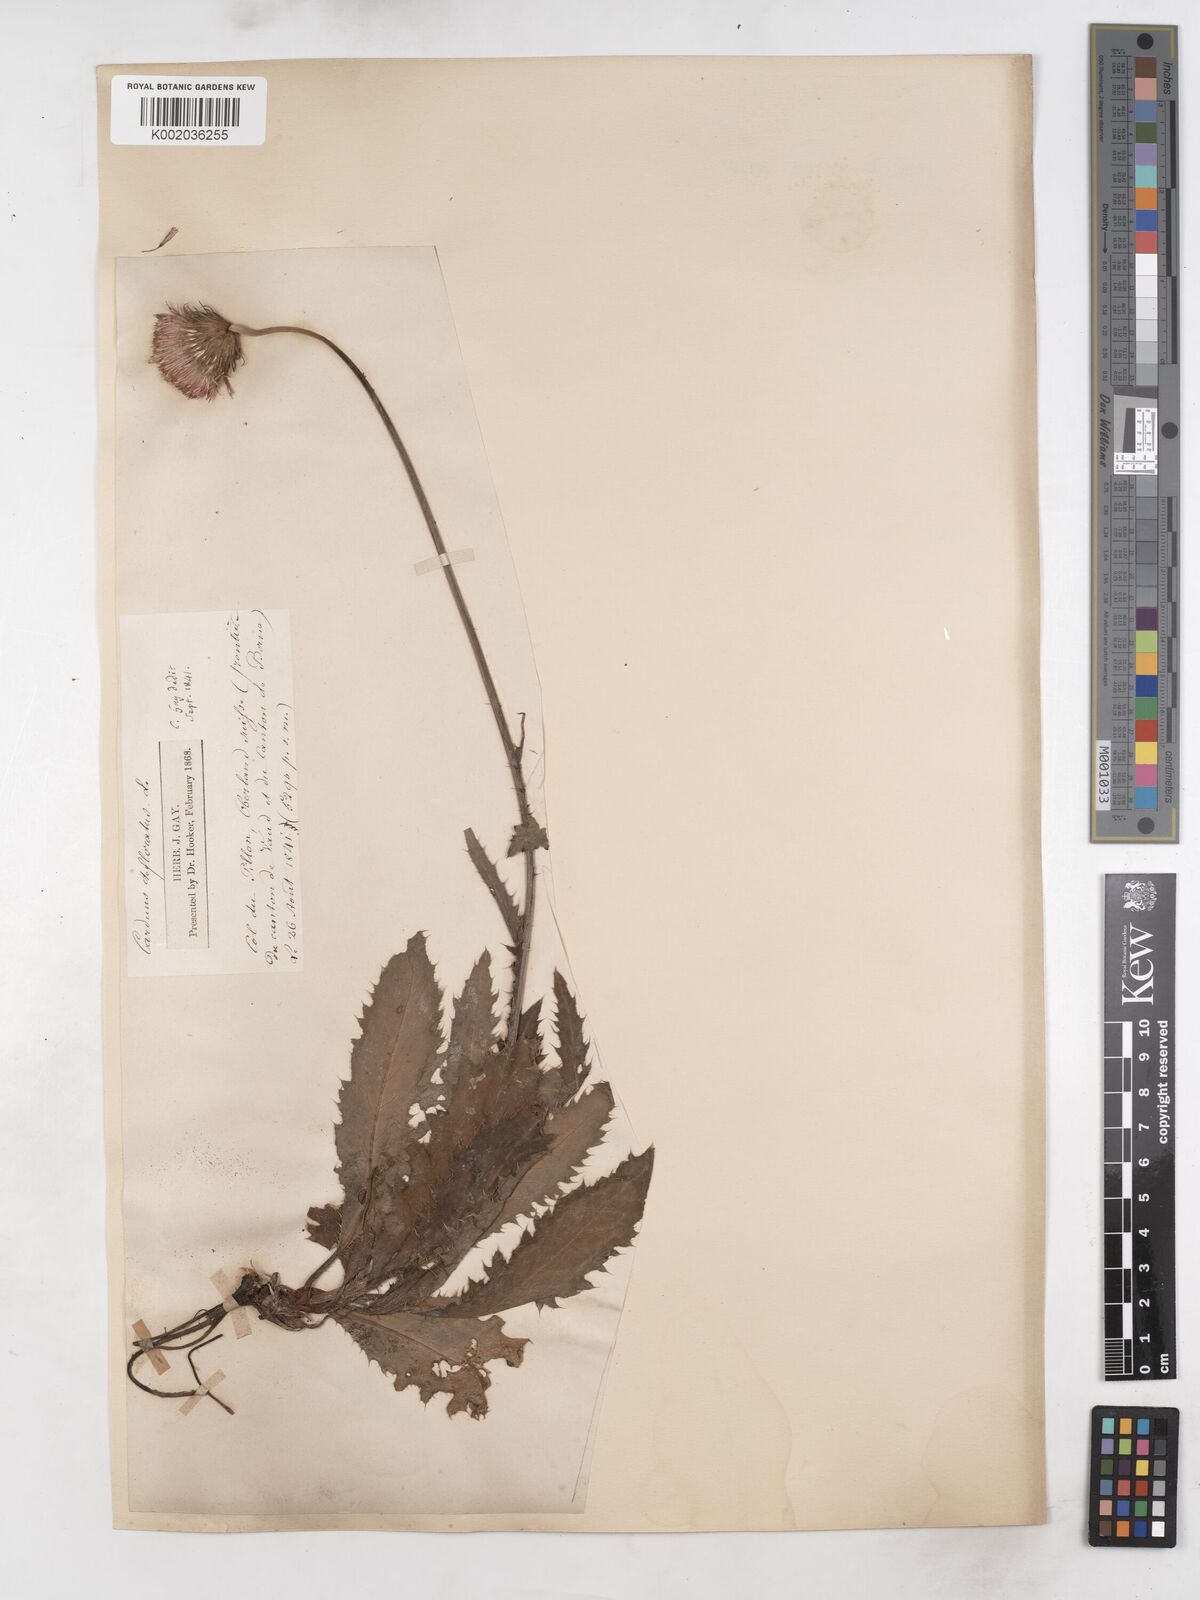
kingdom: Plantae
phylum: Tracheophyta
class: Magnoliopsida
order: Asterales
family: Asteraceae
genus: Carduus
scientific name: Carduus defloratus
